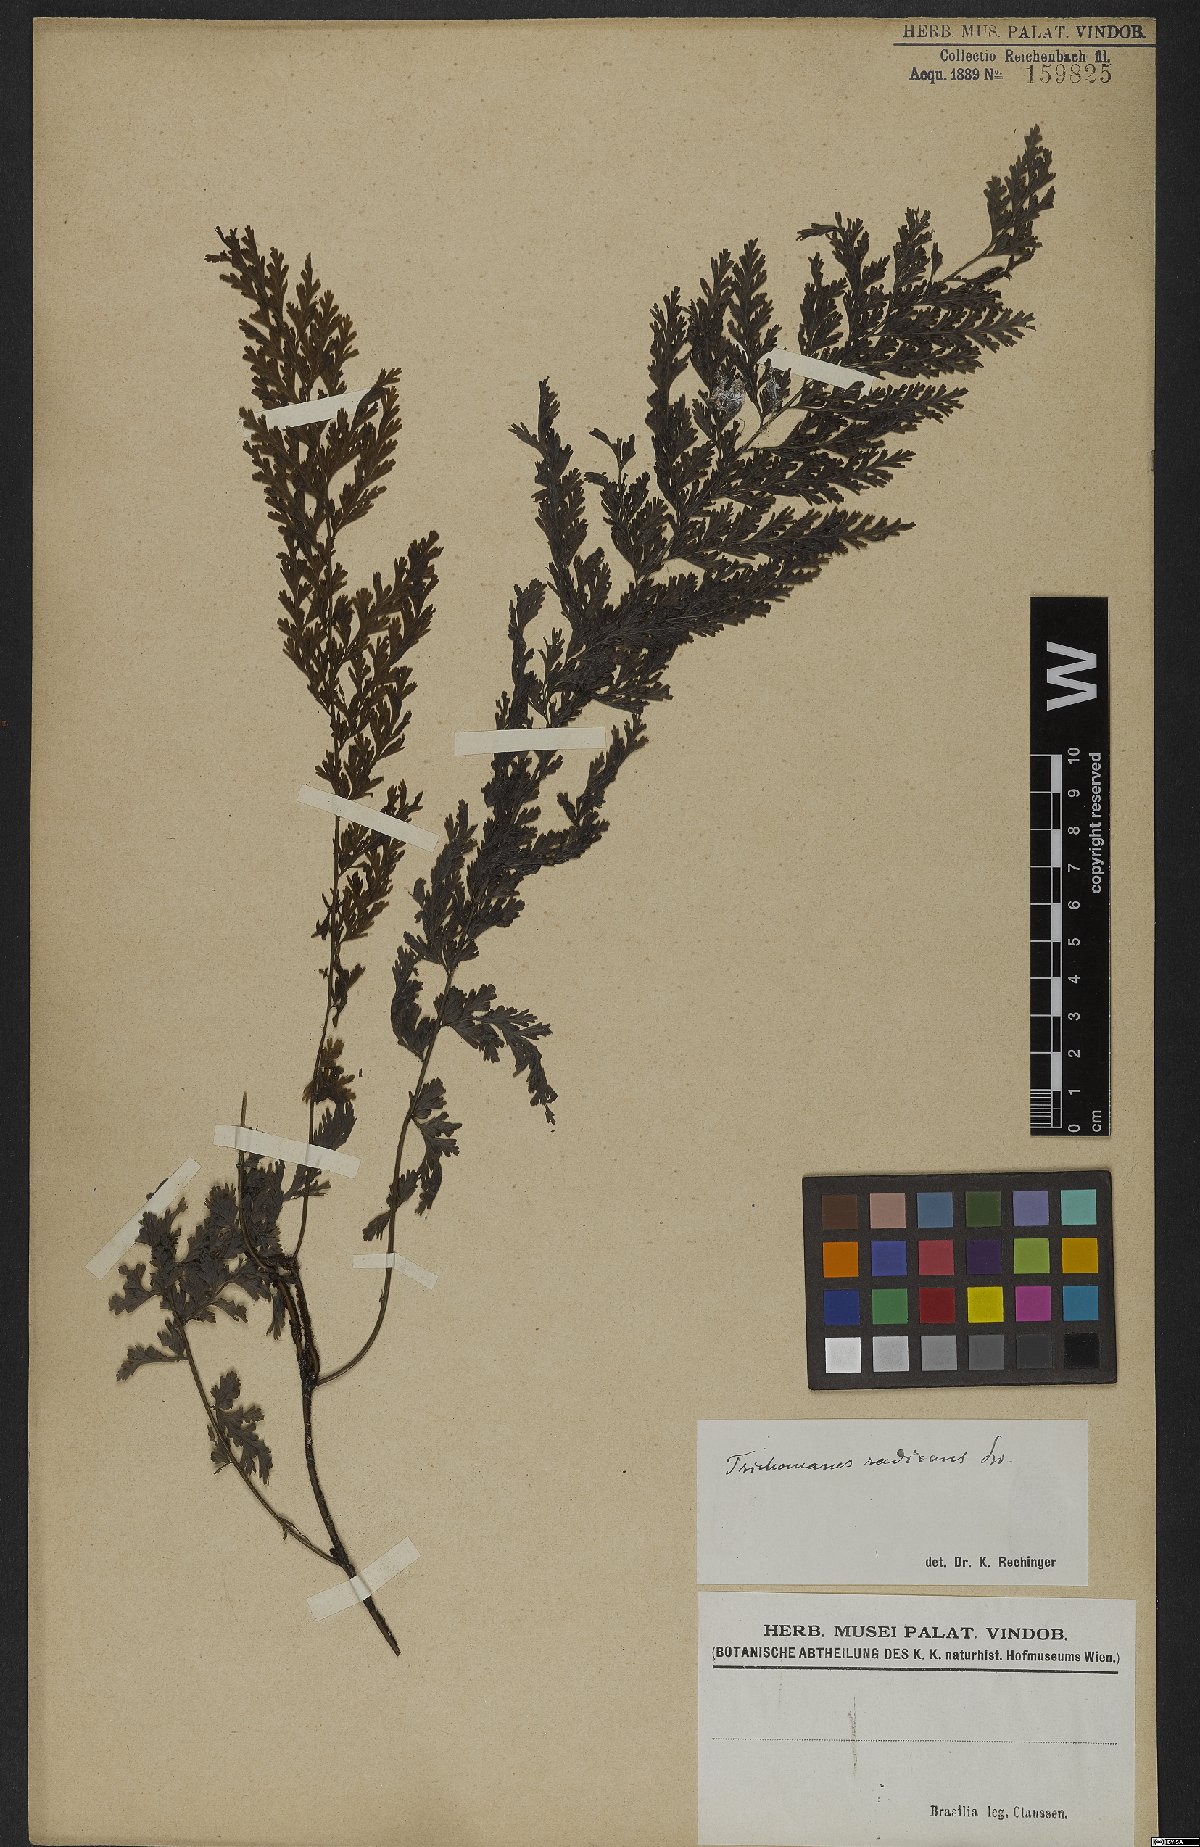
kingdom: Plantae
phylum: Tracheophyta
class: Polypodiopsida
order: Hymenophyllales
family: Hymenophyllaceae
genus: Vandenboschia
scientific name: Vandenboschia radicans
